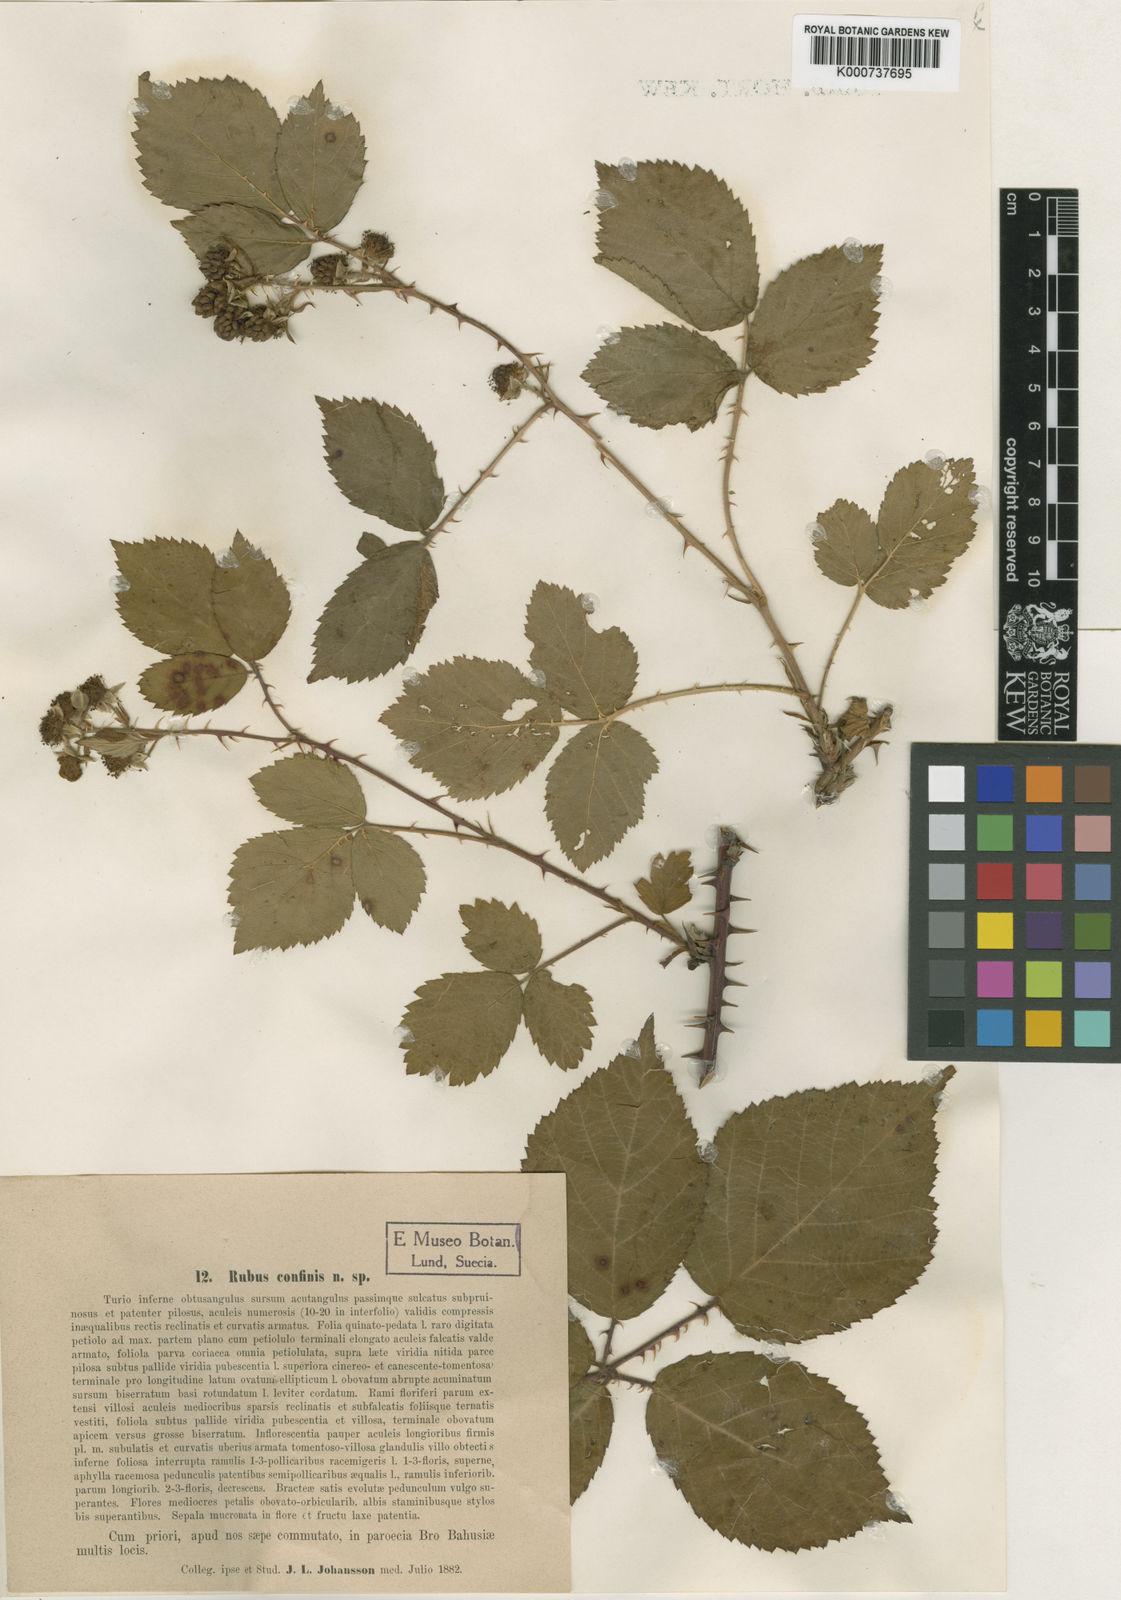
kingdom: Plantae
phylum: Tracheophyta
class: Magnoliopsida
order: Rosales
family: Rosaceae
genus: Rubus
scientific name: Rubus septentrionalis
